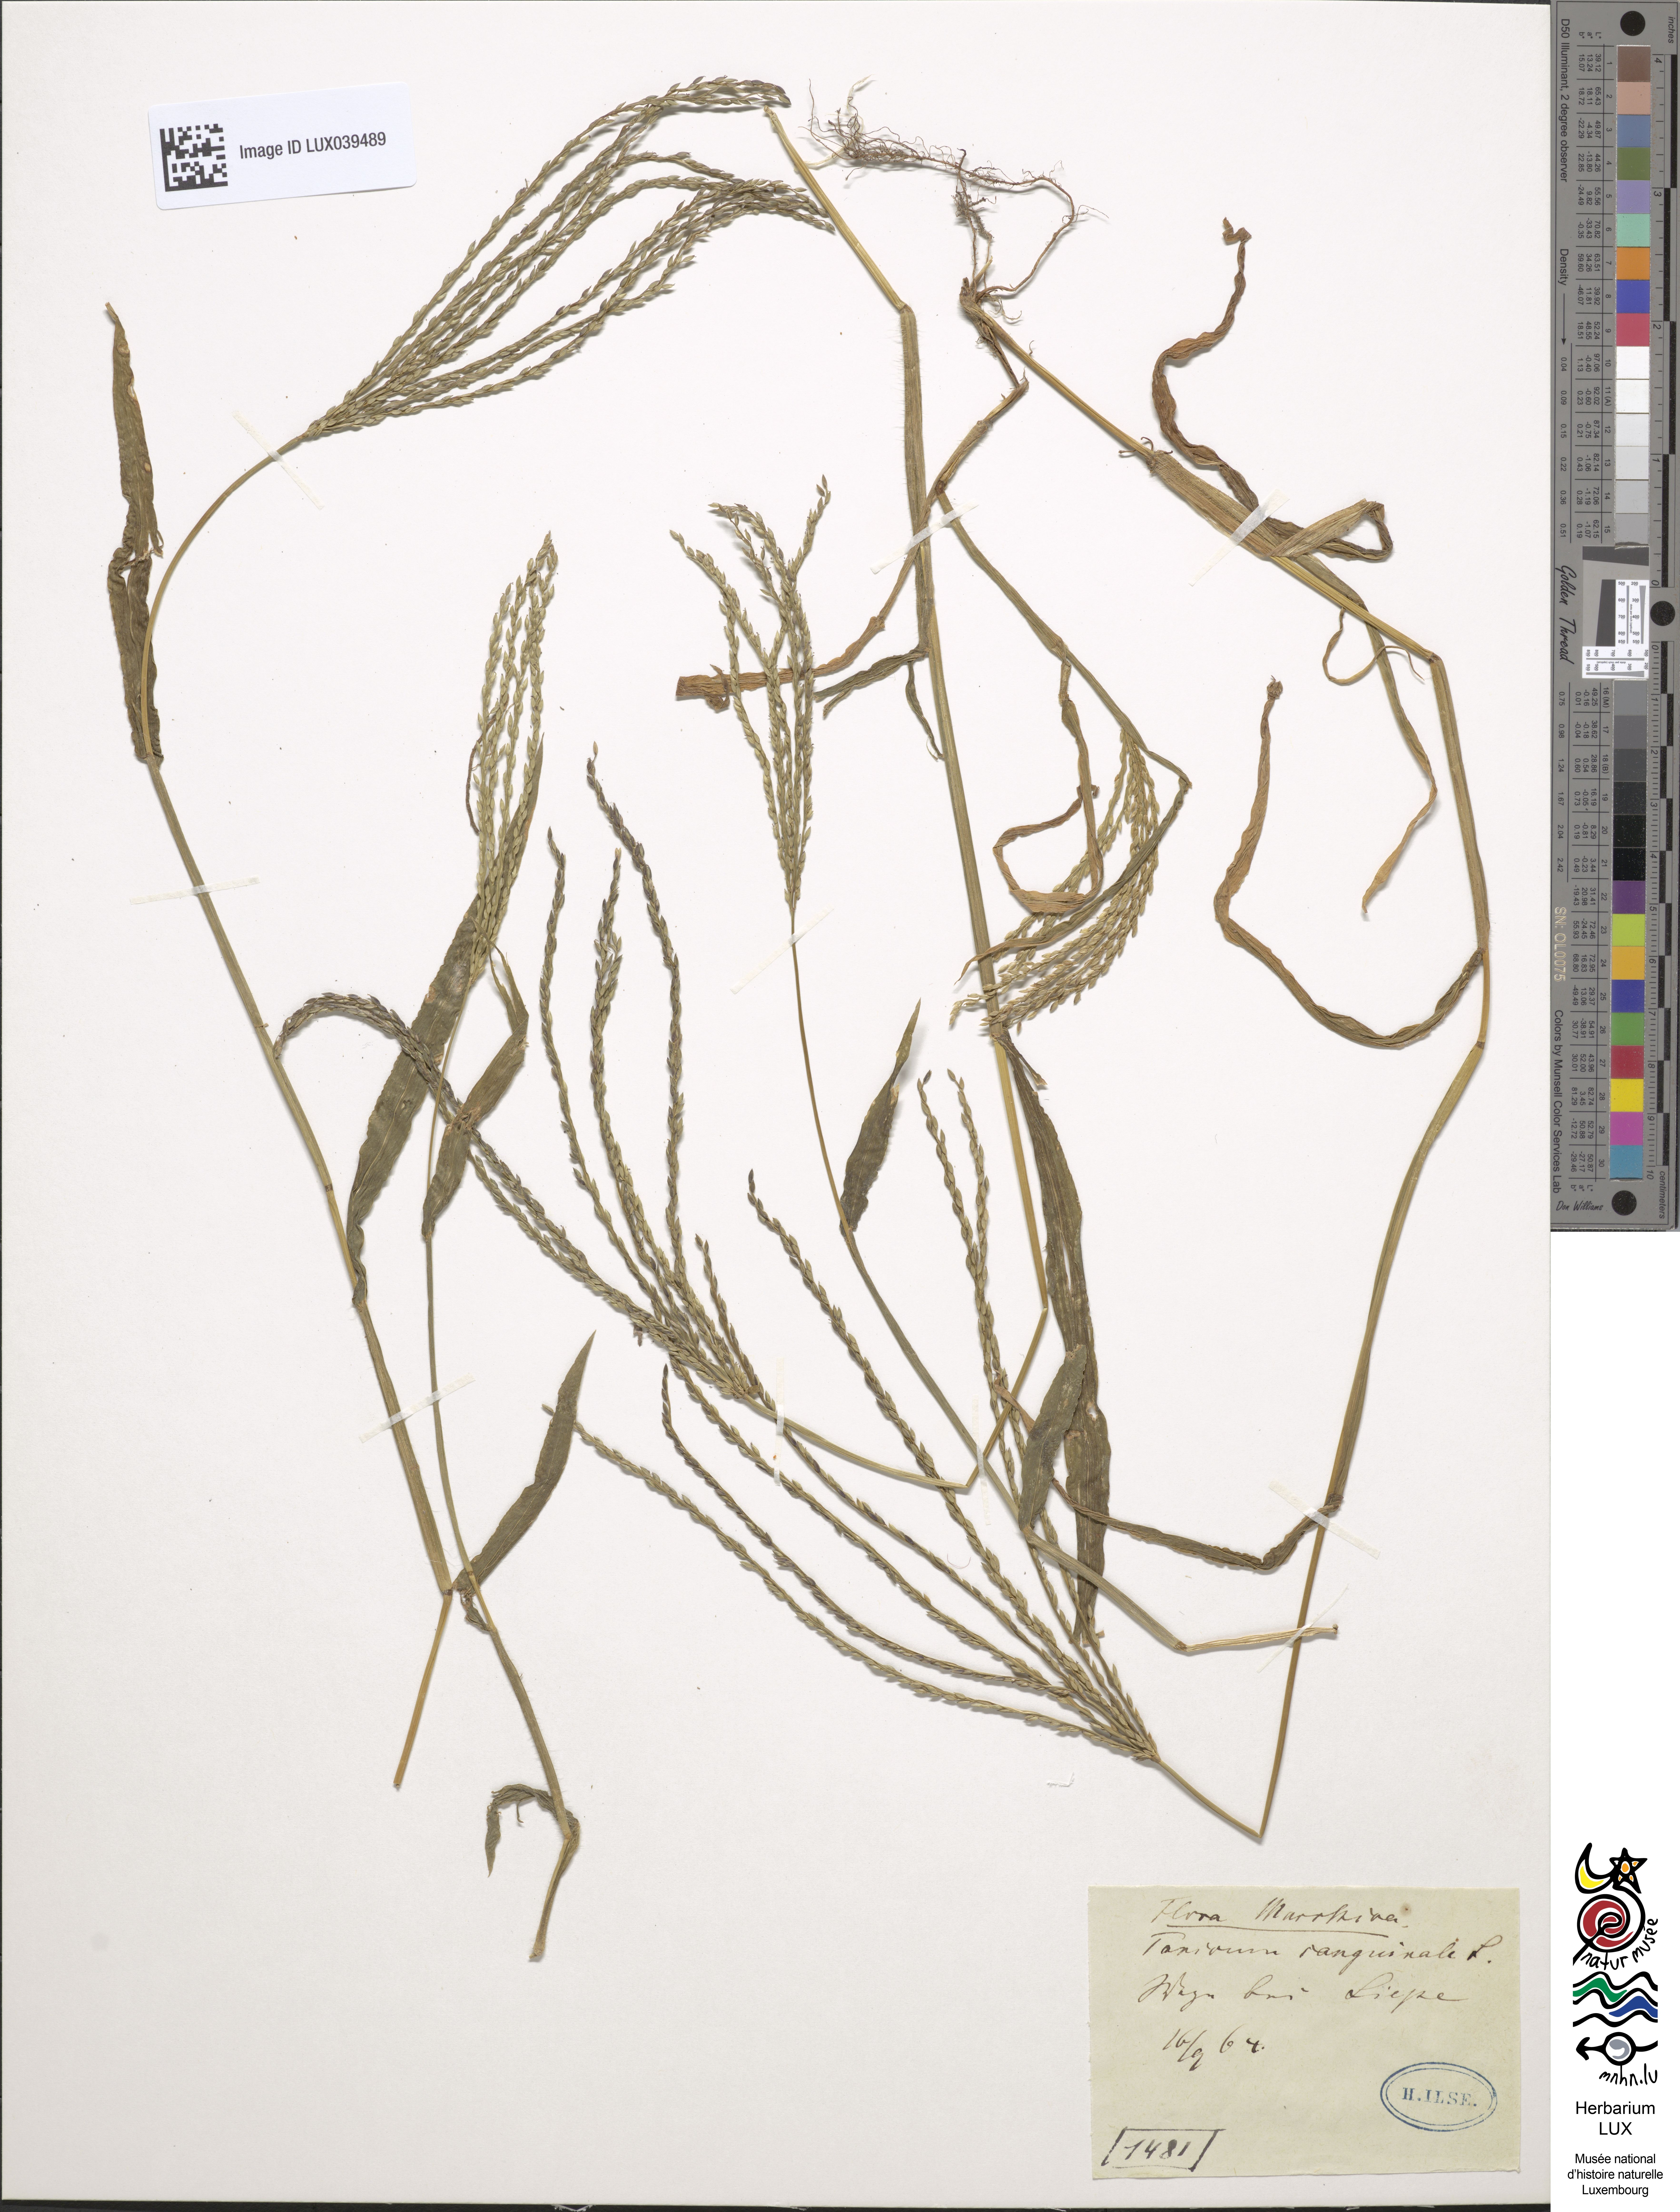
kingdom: Plantae
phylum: Tracheophyta
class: Liliopsida
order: Poales
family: Poaceae
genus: Digitaria
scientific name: Digitaria sanguinalis
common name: Hairy crabgrass
